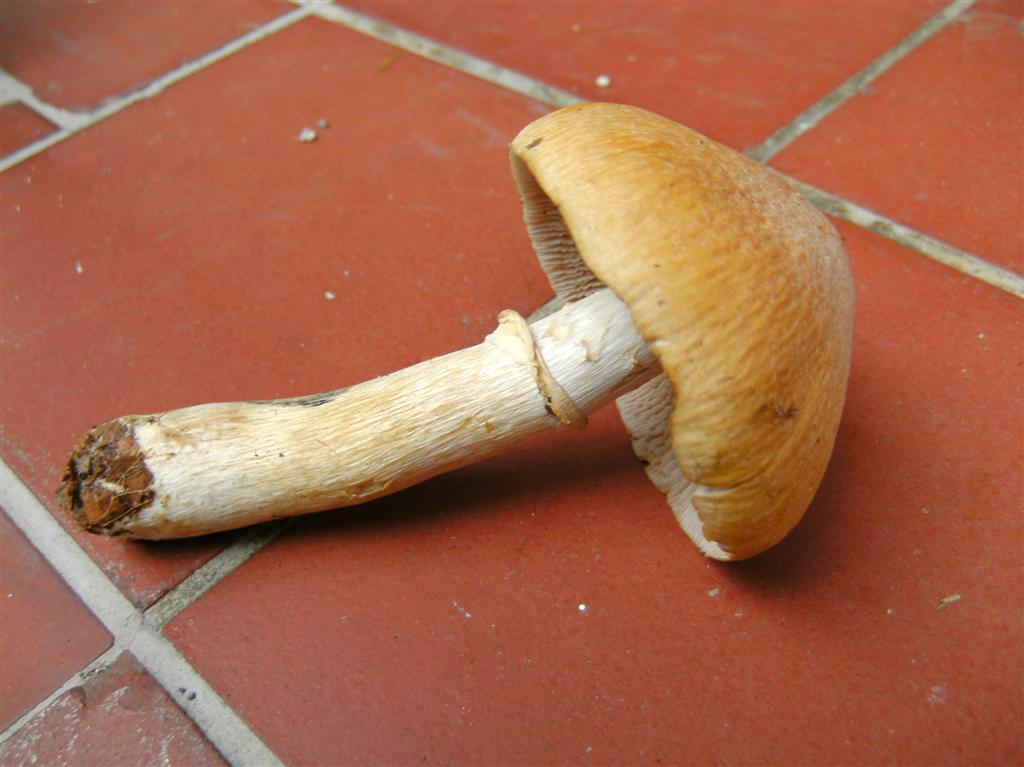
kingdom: Fungi
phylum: Basidiomycota
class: Agaricomycetes
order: Agaricales
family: Cortinariaceae
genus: Cortinarius
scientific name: Cortinarius caperatus
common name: klidhat
